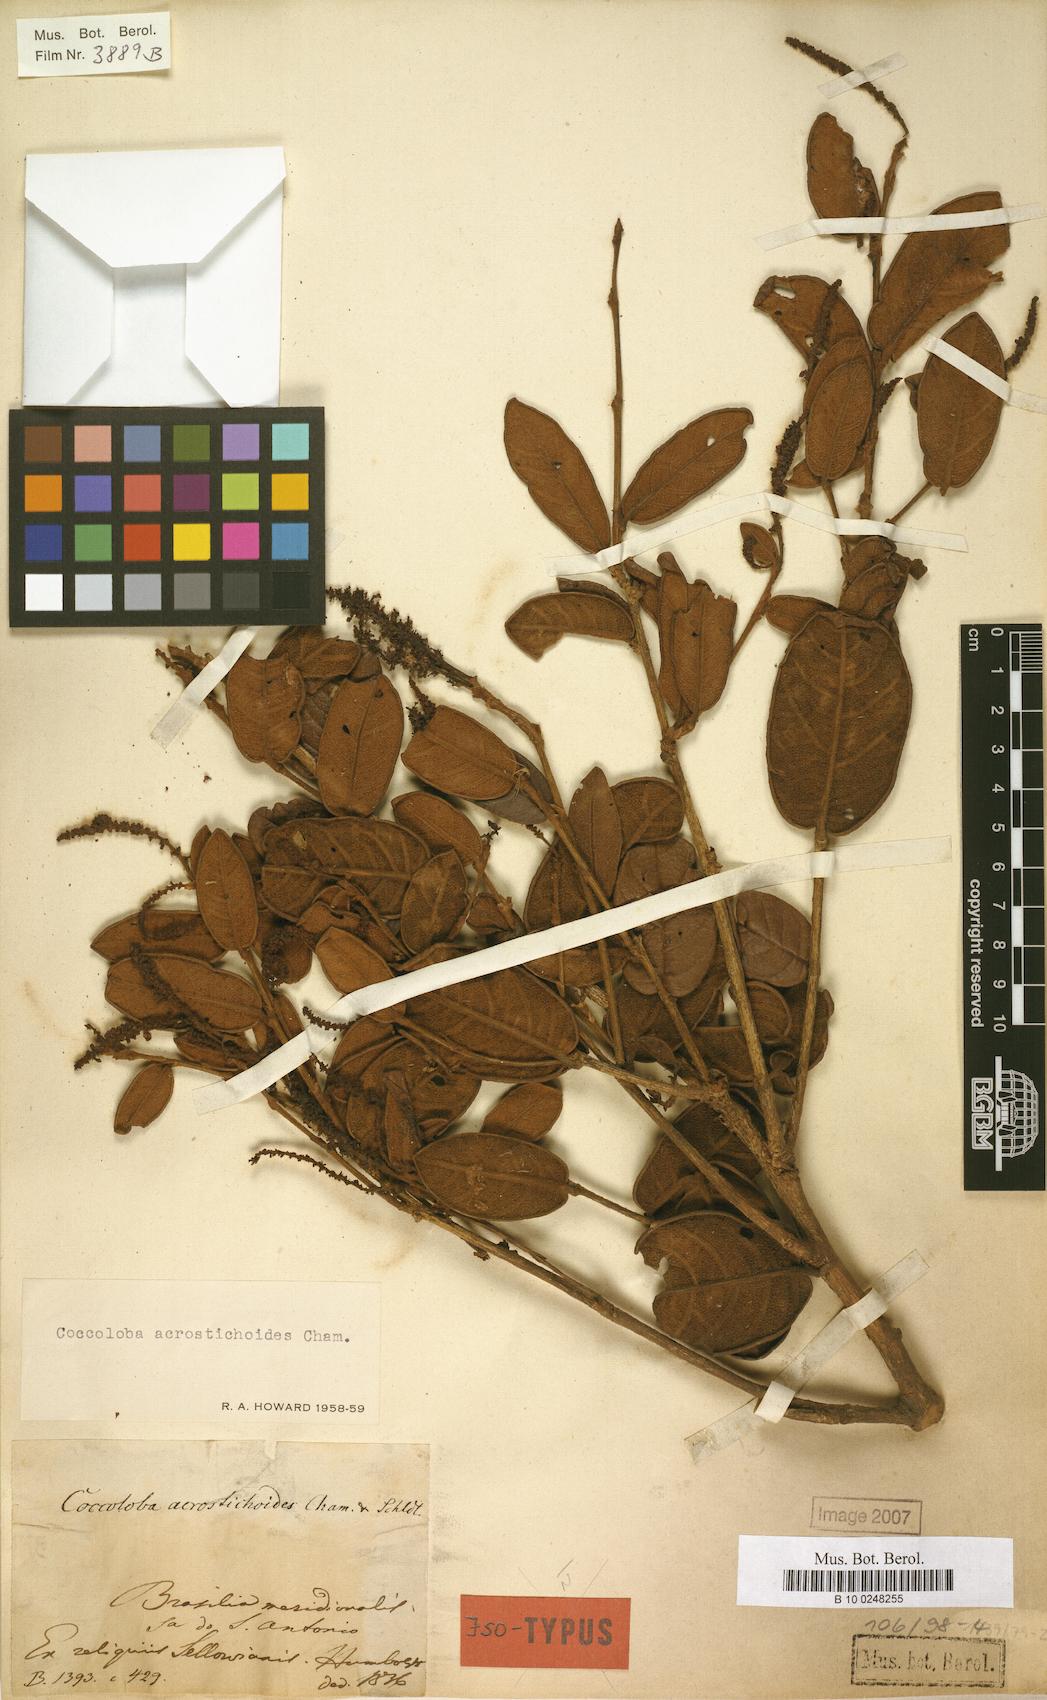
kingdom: Plantae
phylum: Tracheophyta
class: Magnoliopsida
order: Caryophyllales
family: Polygonaceae
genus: Coccoloba
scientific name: Coccoloba acrostichoides
